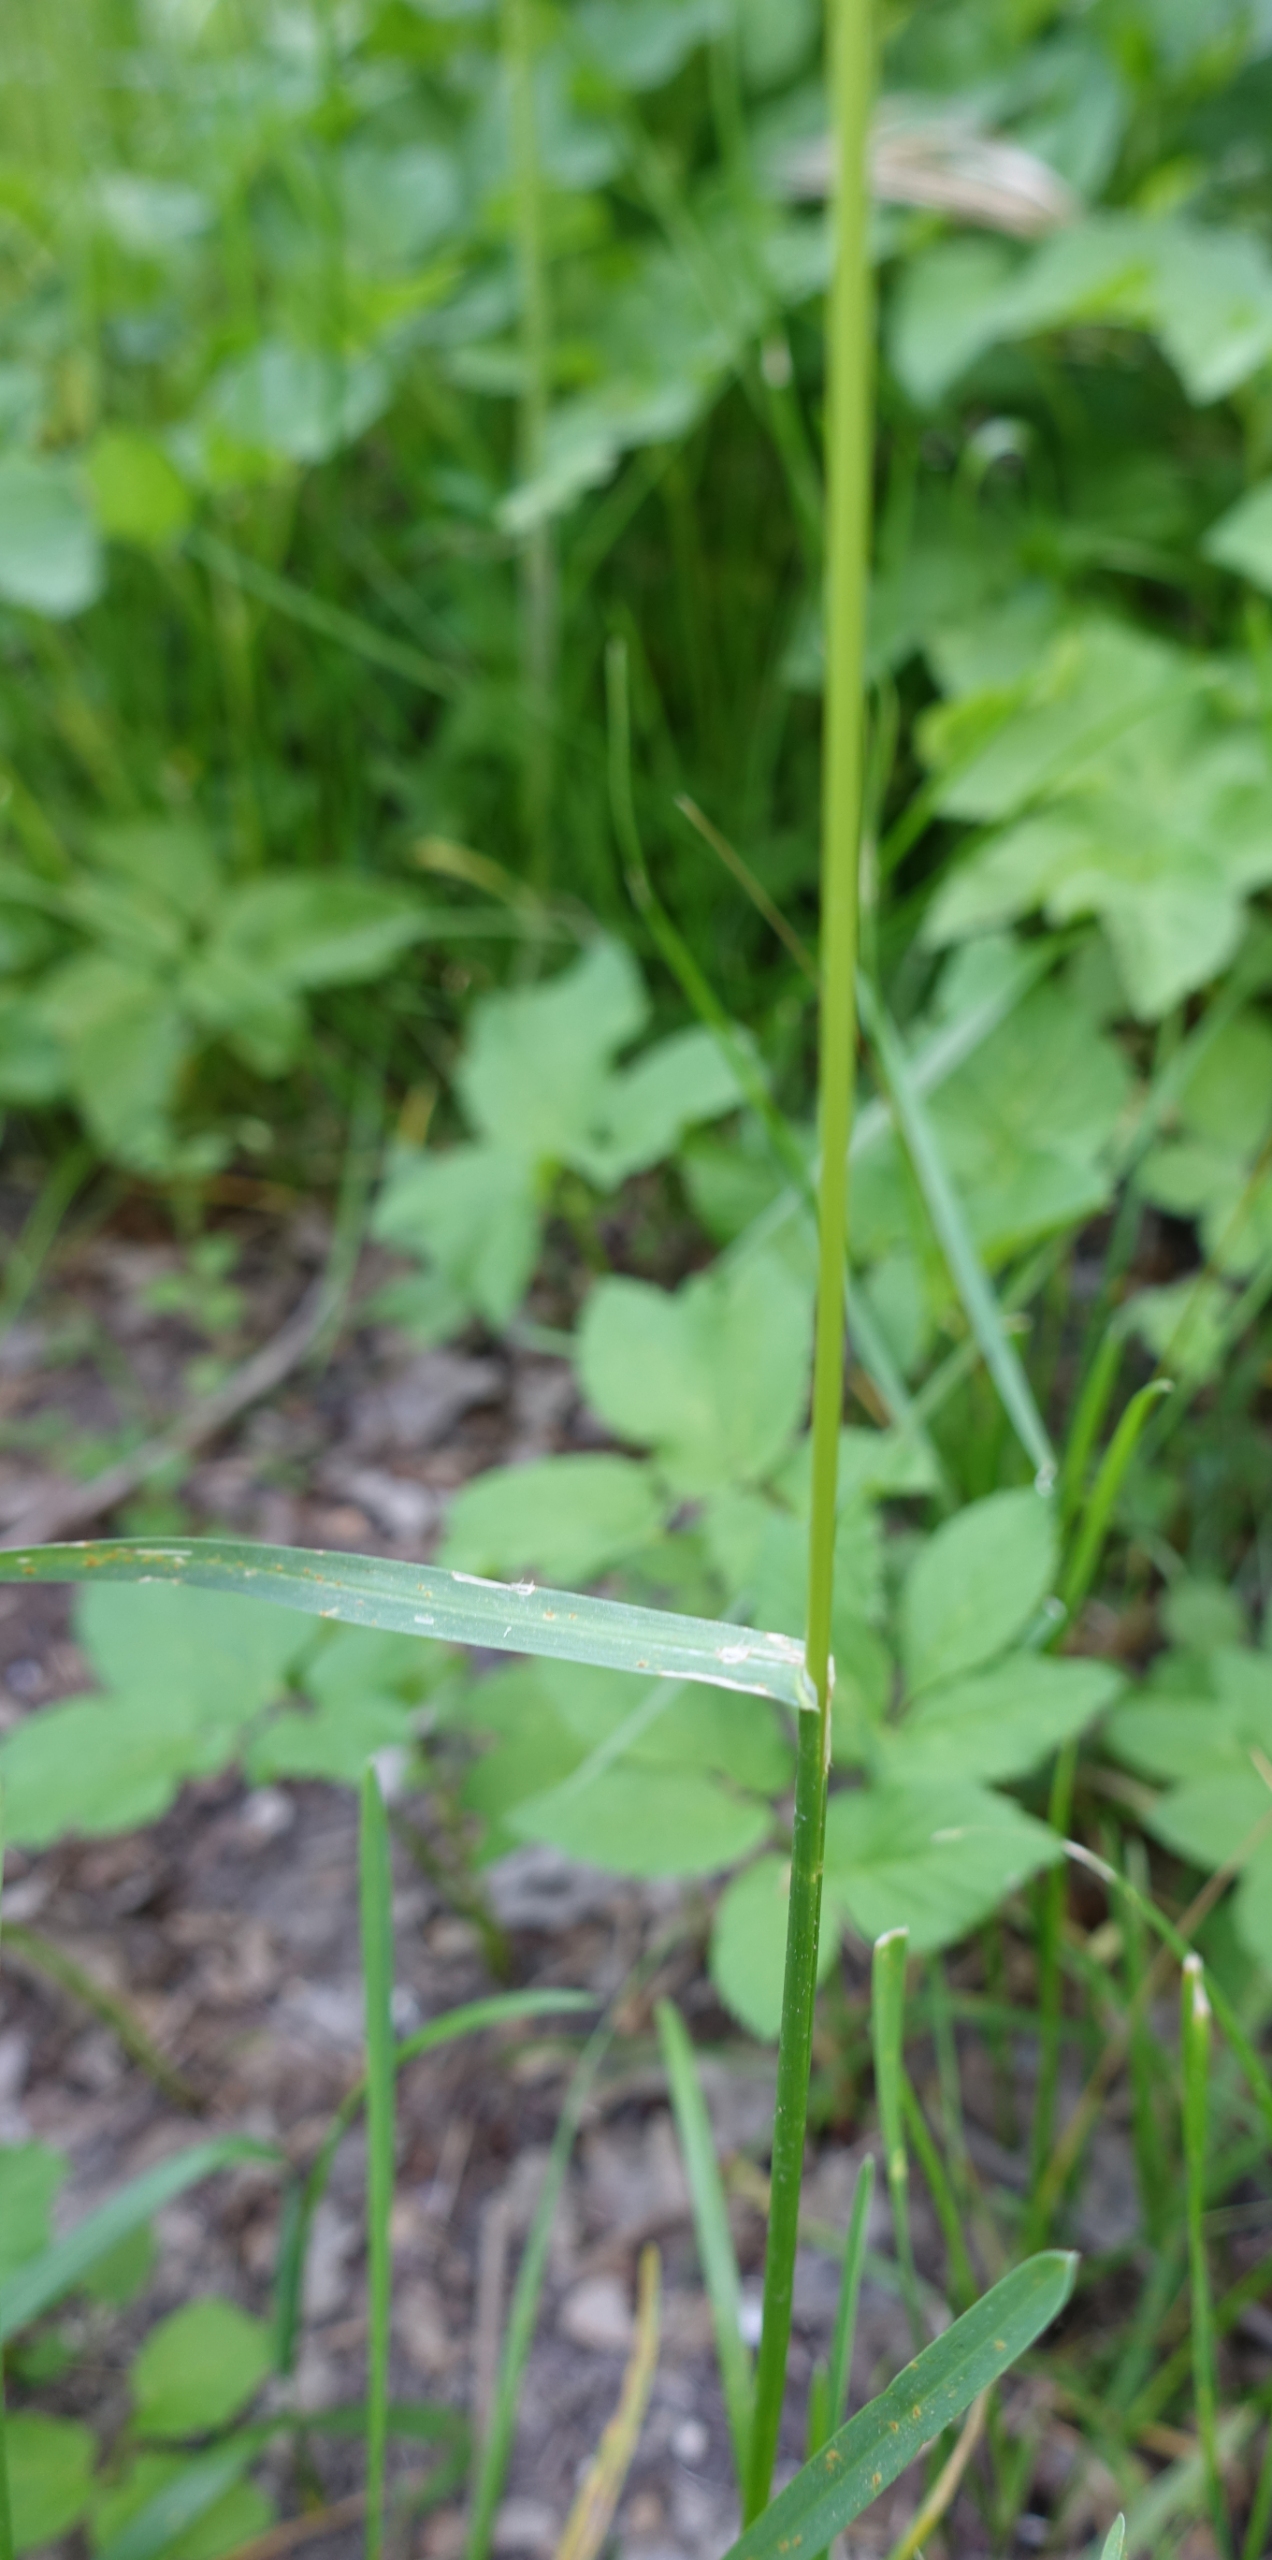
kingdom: Plantae
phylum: Tracheophyta
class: Liliopsida
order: Poales
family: Poaceae
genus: Poa
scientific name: Poa pratensis
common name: Eng-rapgræs
